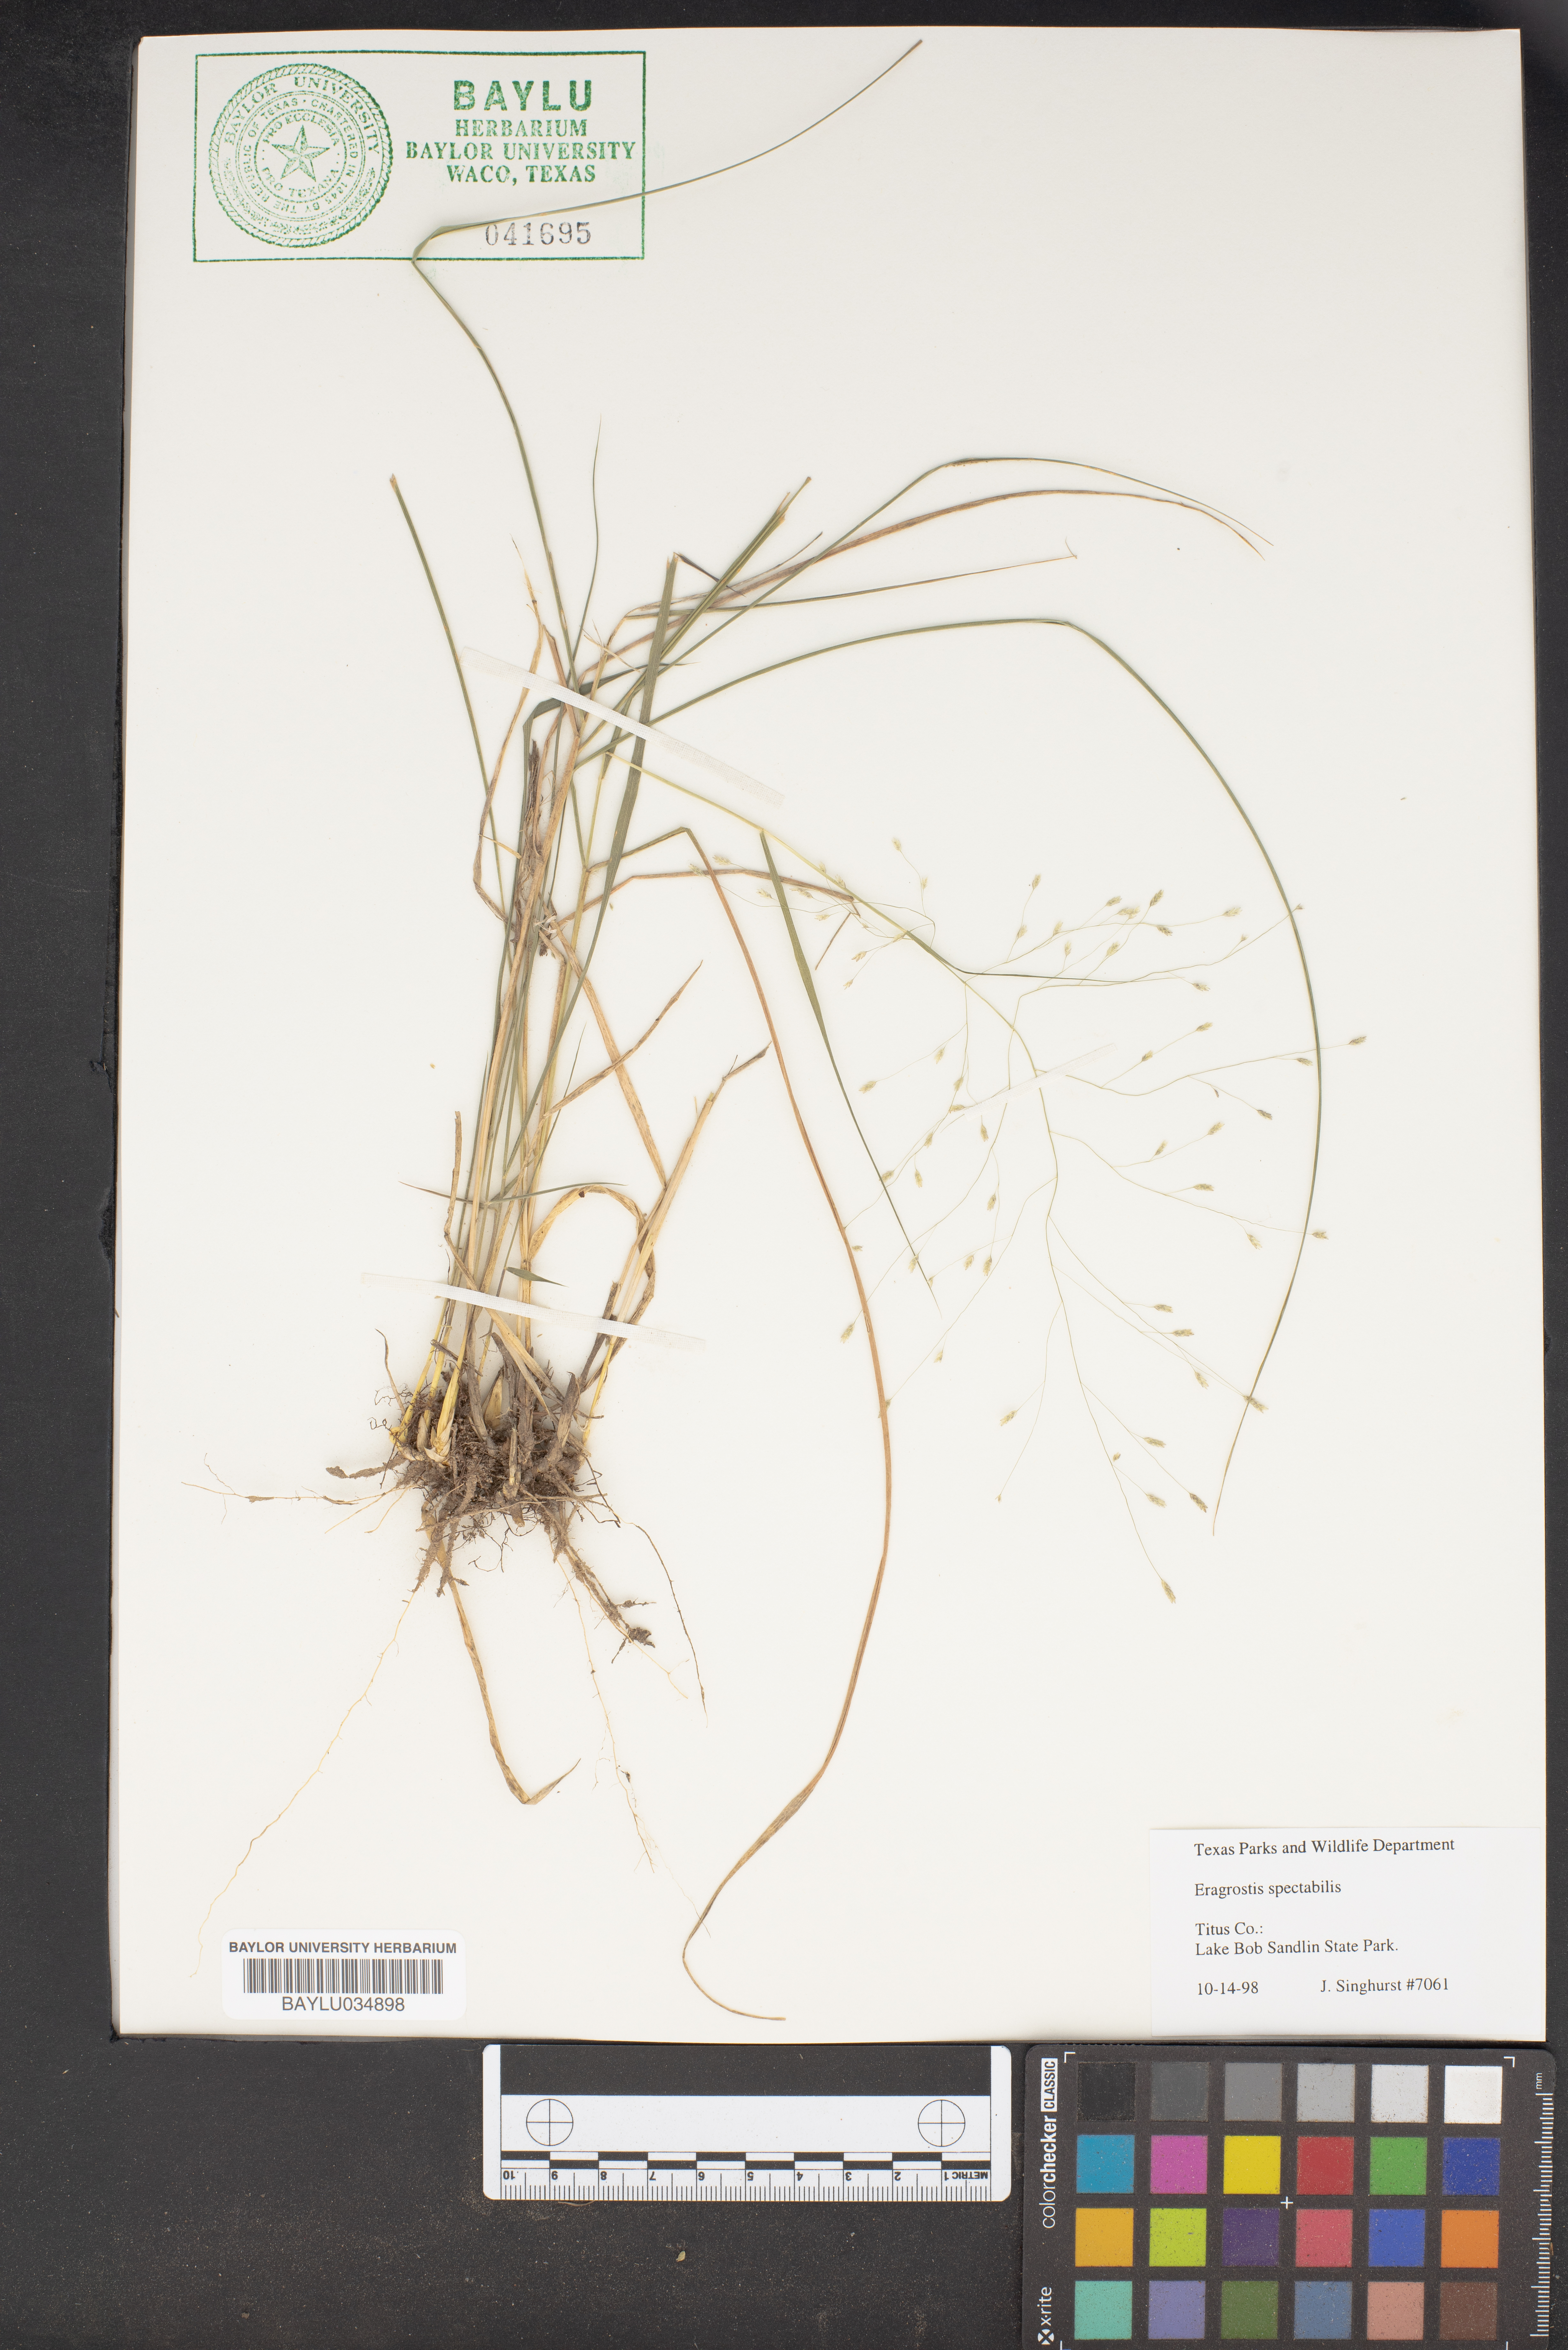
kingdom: Plantae
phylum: Tracheophyta
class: Liliopsida
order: Poales
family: Poaceae
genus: Eragrostis
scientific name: Eragrostis spectabilis
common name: Petticoat-climber
